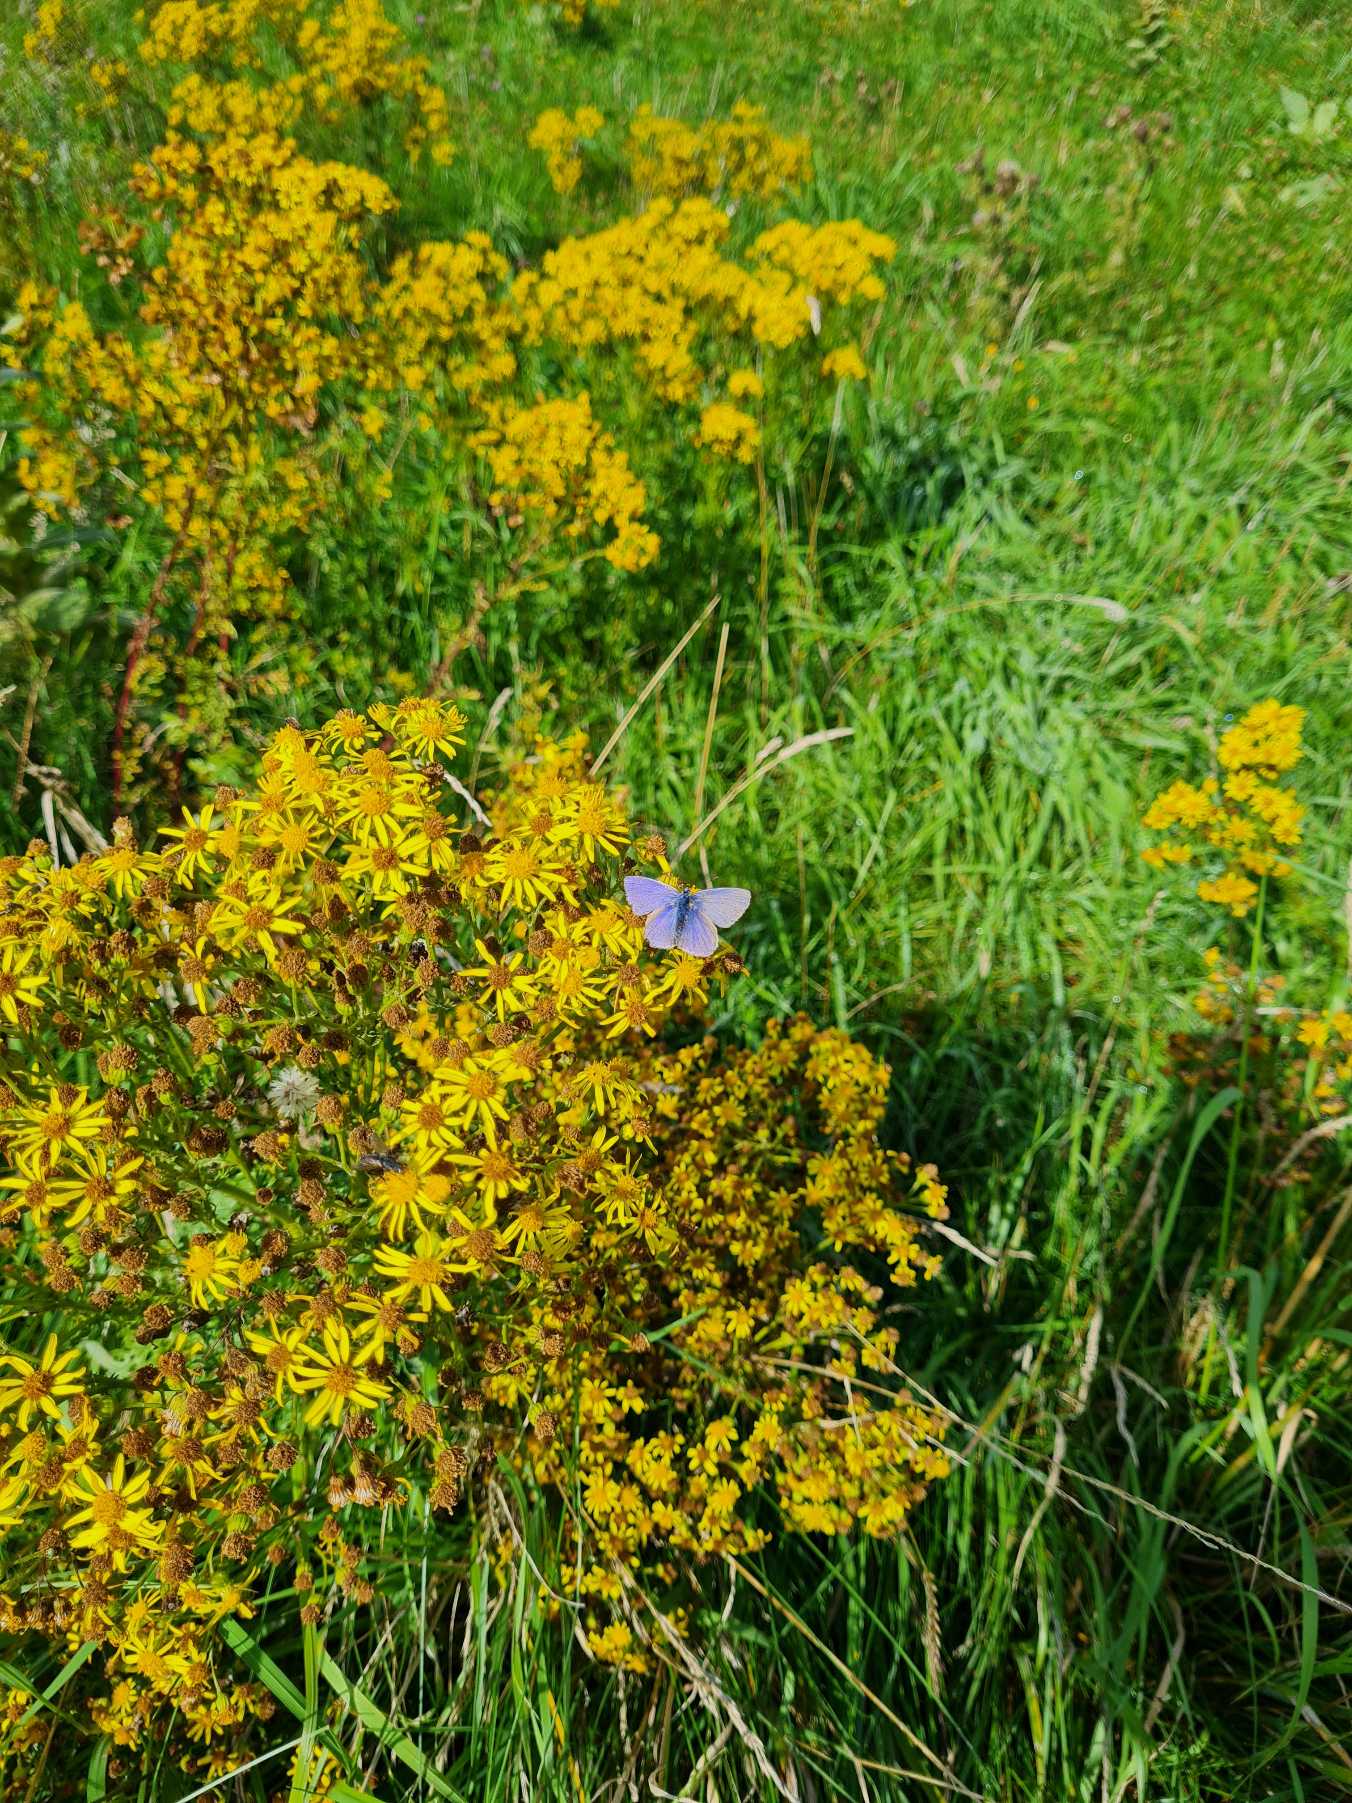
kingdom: Animalia
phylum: Arthropoda
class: Insecta
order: Lepidoptera
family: Lycaenidae
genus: Polyommatus
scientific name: Polyommatus icarus
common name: Almindelig blåfugl
